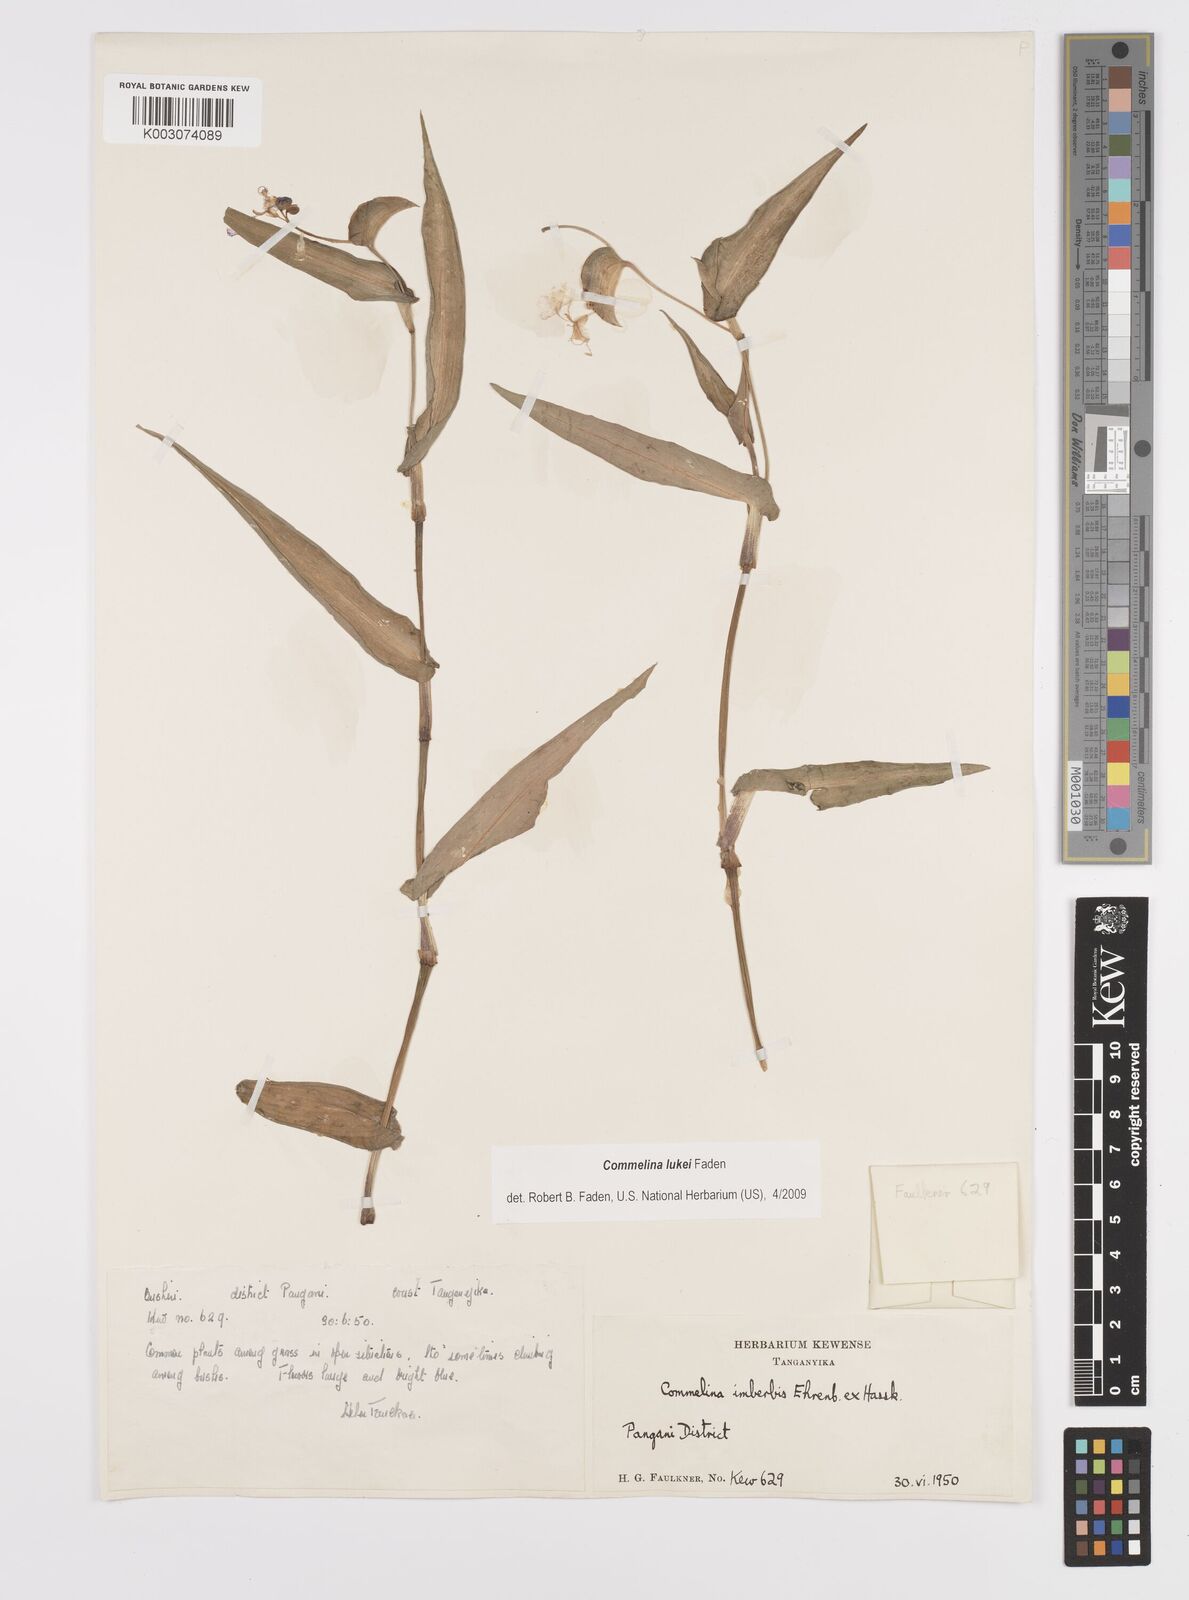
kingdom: Plantae
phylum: Tracheophyta
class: Liliopsida
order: Commelinales
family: Commelinaceae
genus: Commelina
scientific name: Commelina lukei
